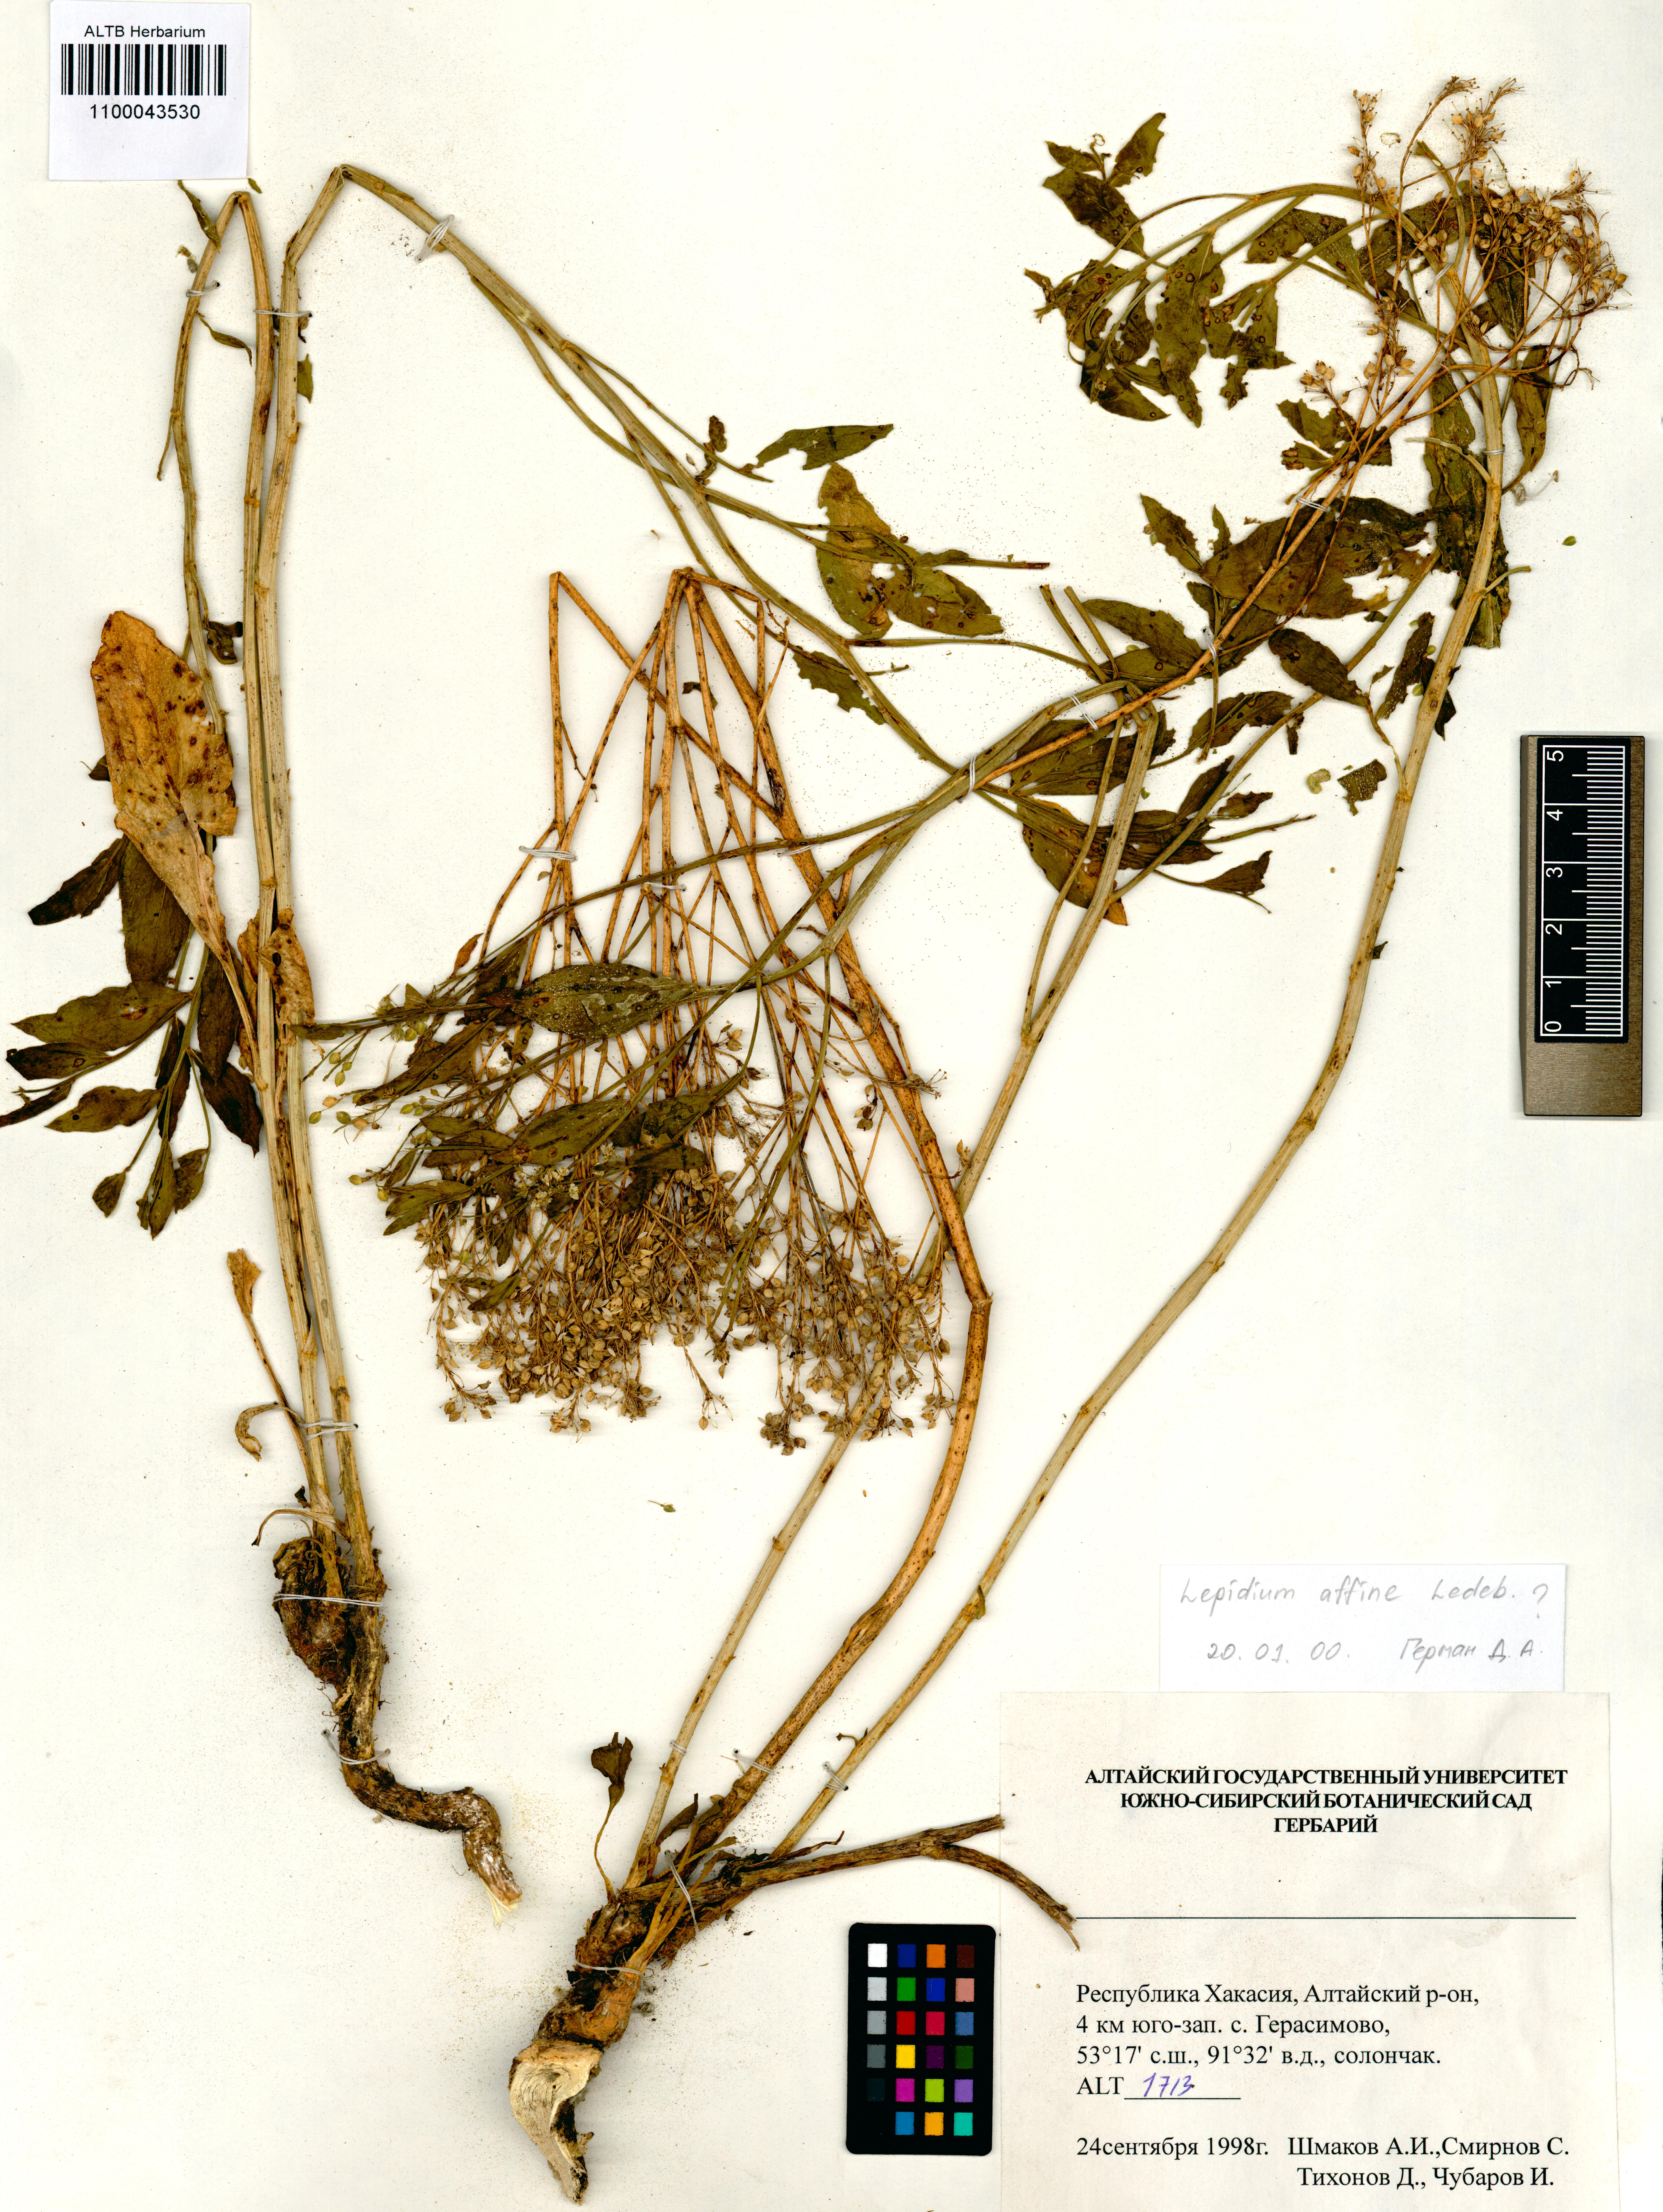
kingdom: Plantae
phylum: Tracheophyta
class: Magnoliopsida
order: Brassicales
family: Brassicaceae
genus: Lepidium
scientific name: Lepidium latifolium
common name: Dittander
